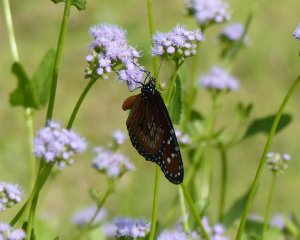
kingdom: Animalia
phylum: Arthropoda
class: Insecta
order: Lepidoptera
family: Nymphalidae
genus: Danaus
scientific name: Danaus eresimus
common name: Soldier
